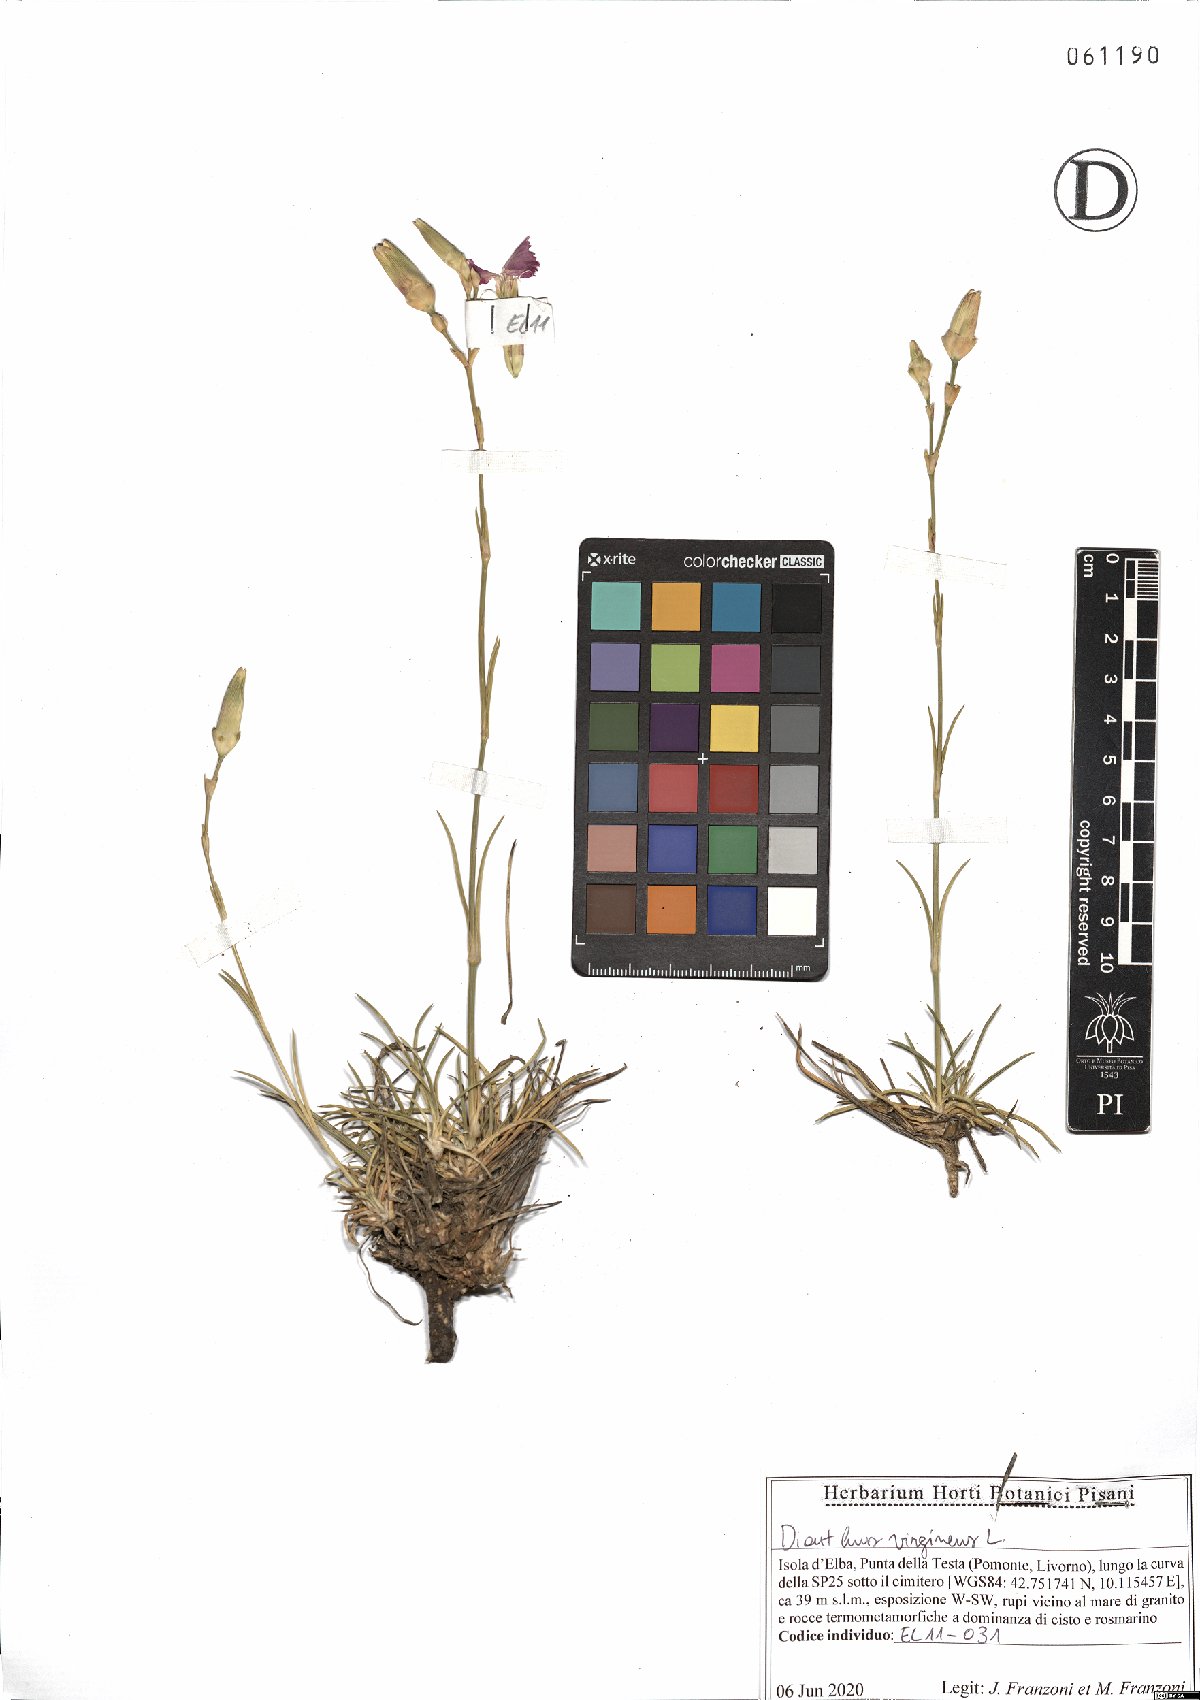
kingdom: Plantae
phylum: Tracheophyta
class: Magnoliopsida
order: Caryophyllales
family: Caryophyllaceae
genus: Dianthus
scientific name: Dianthus virgineus
